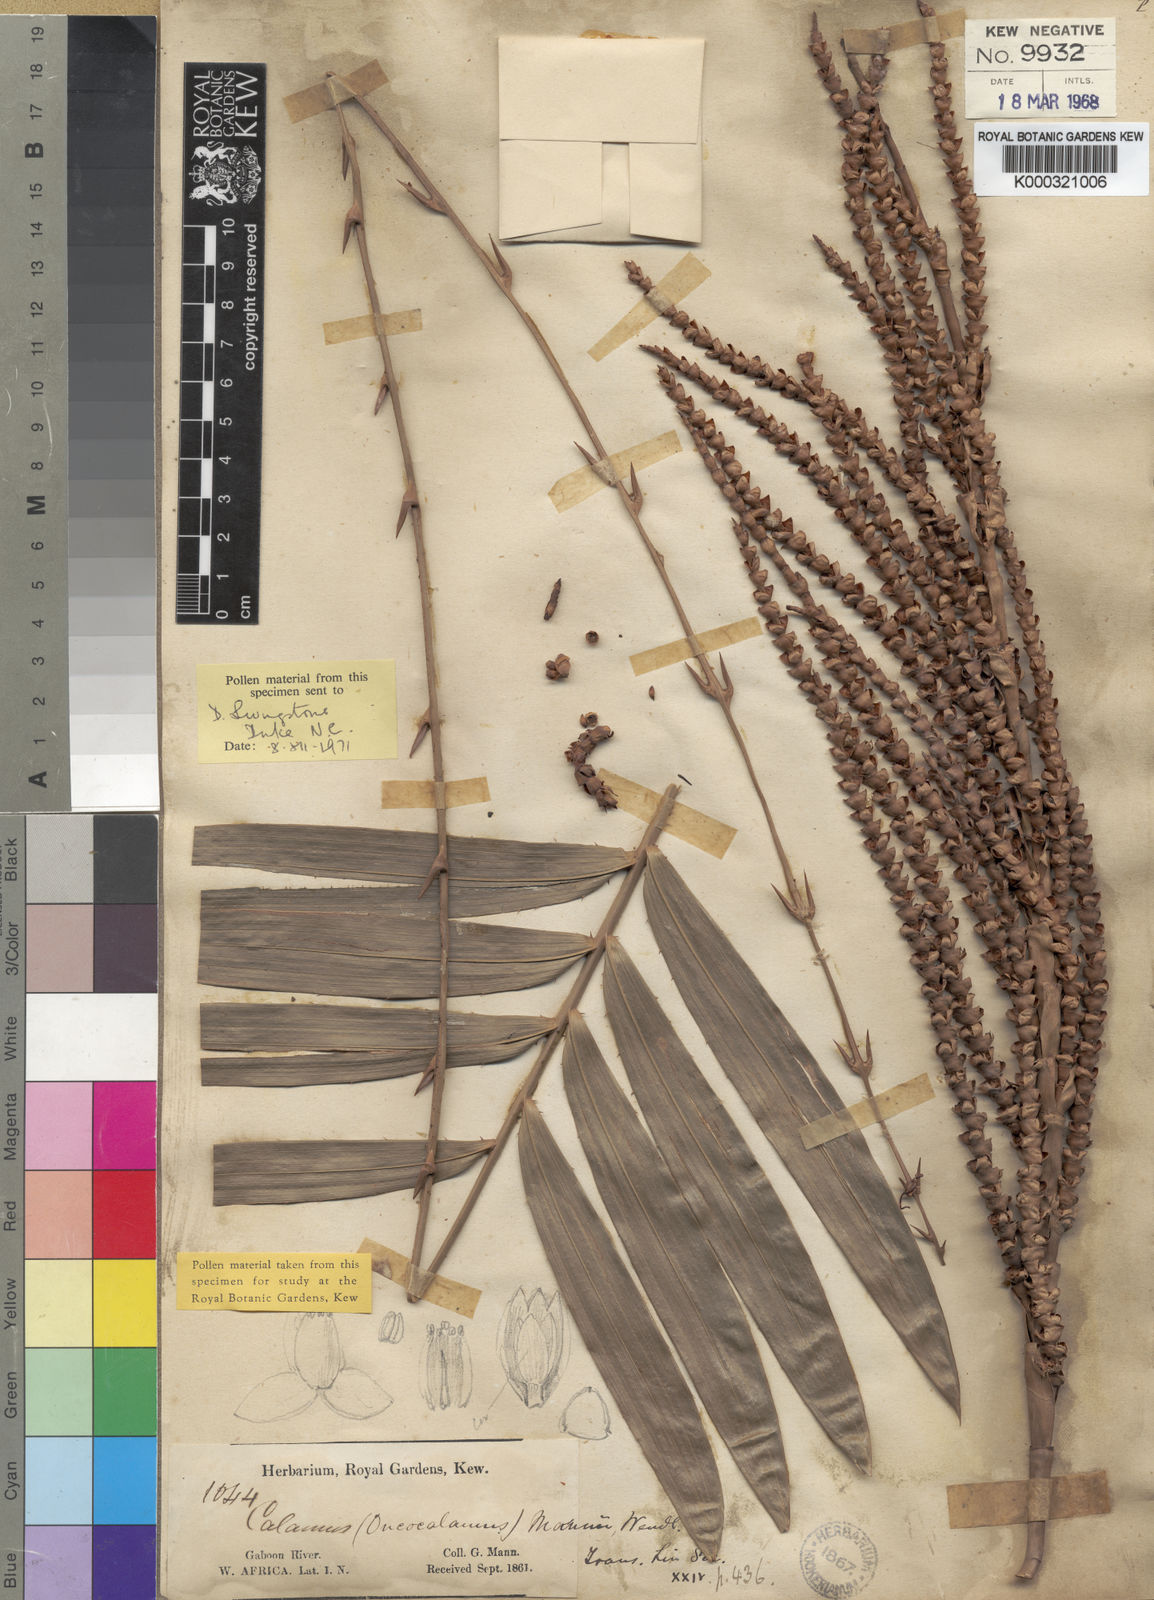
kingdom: Plantae
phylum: Tracheophyta
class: Liliopsida
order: Arecales
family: Arecaceae
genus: Oncocalamus
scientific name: Oncocalamus mannii
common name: Rattan
